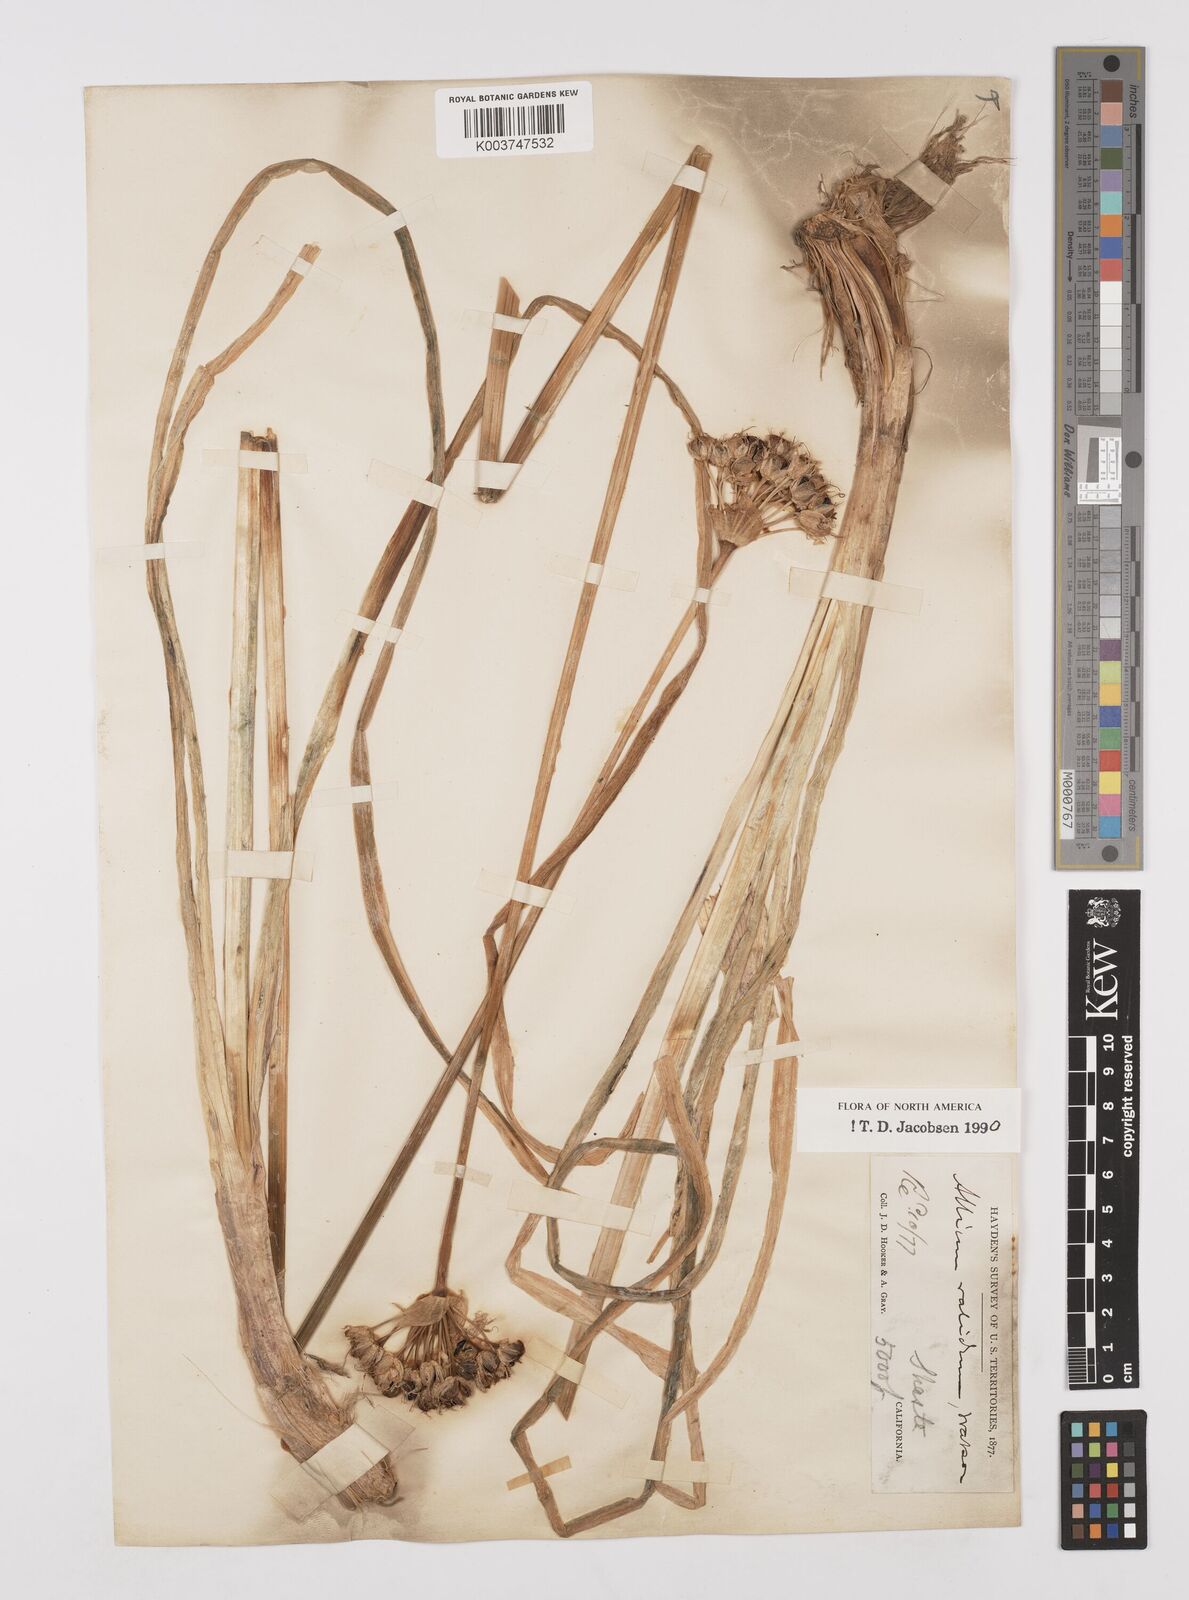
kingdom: Plantae
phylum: Tracheophyta
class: Liliopsida
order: Asparagales
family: Amaryllidaceae
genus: Allium
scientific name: Allium validum
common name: Pacific mountain onion
